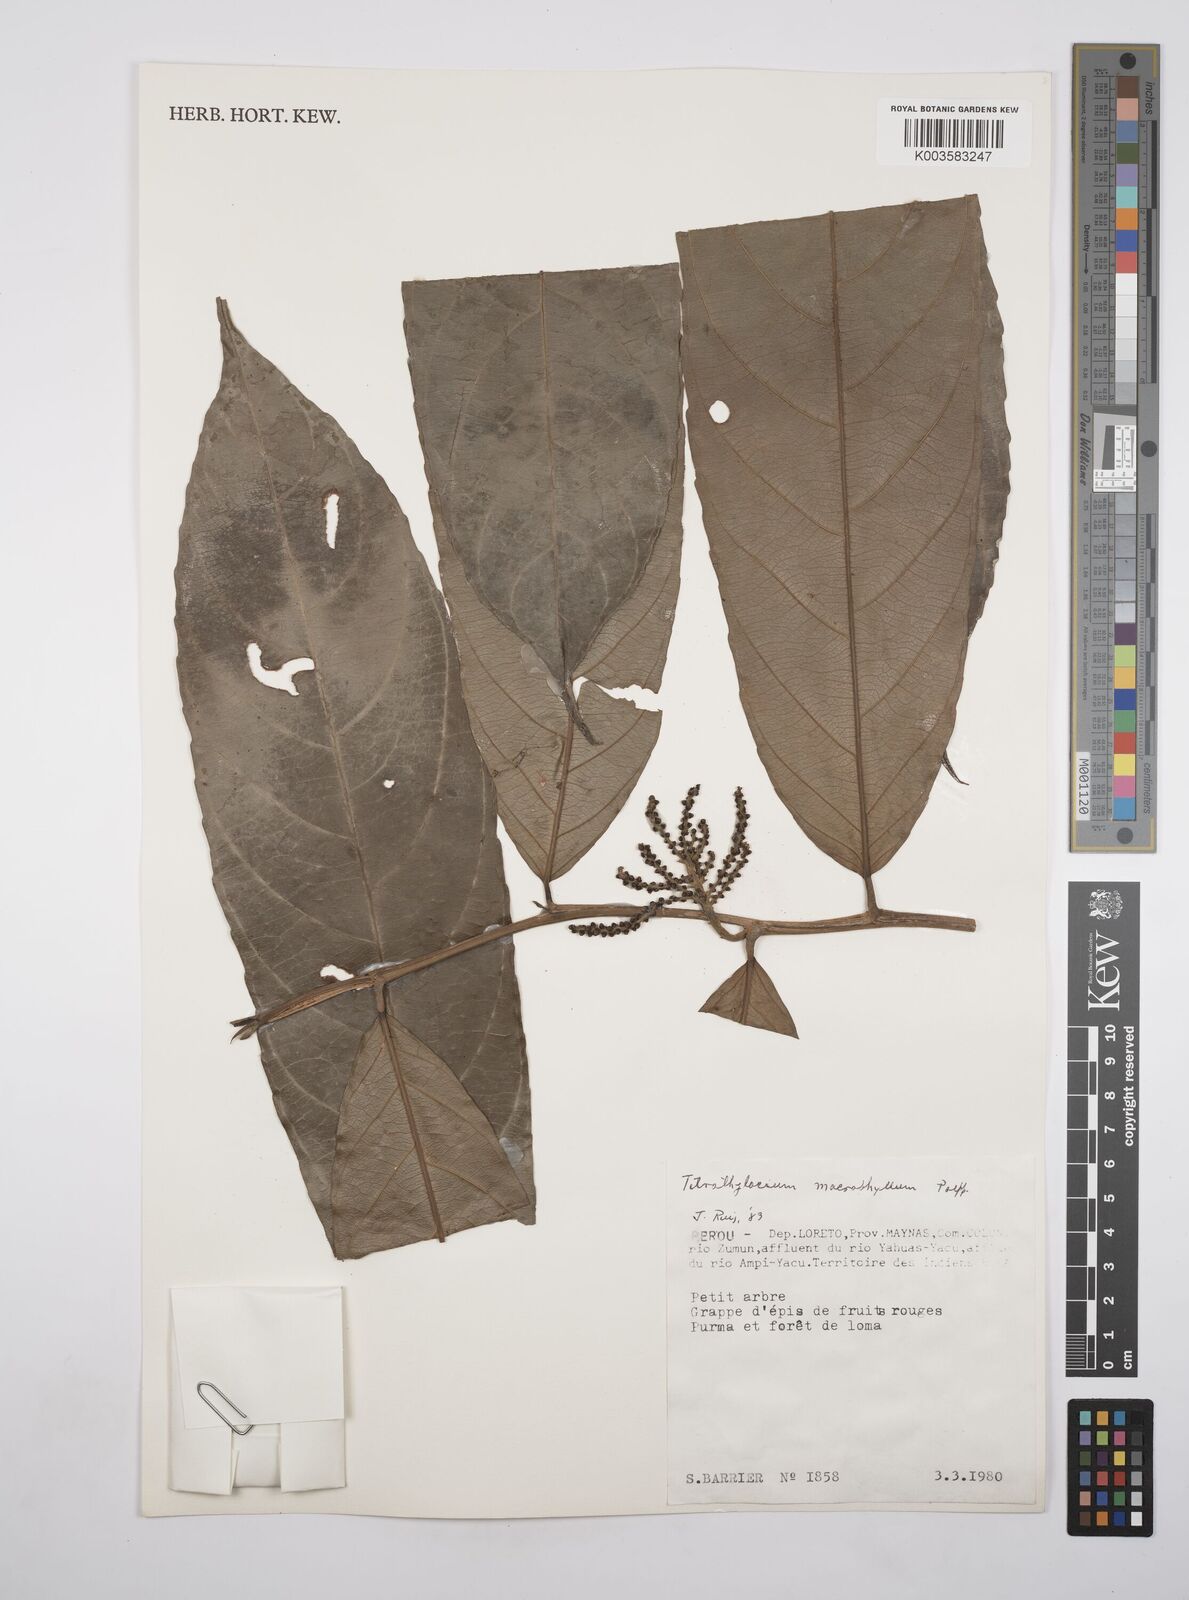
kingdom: Plantae
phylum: Tracheophyta
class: Magnoliopsida
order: Malpighiales
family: Salicaceae
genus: Tetrathylacium
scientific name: Tetrathylacium macrophyllum
